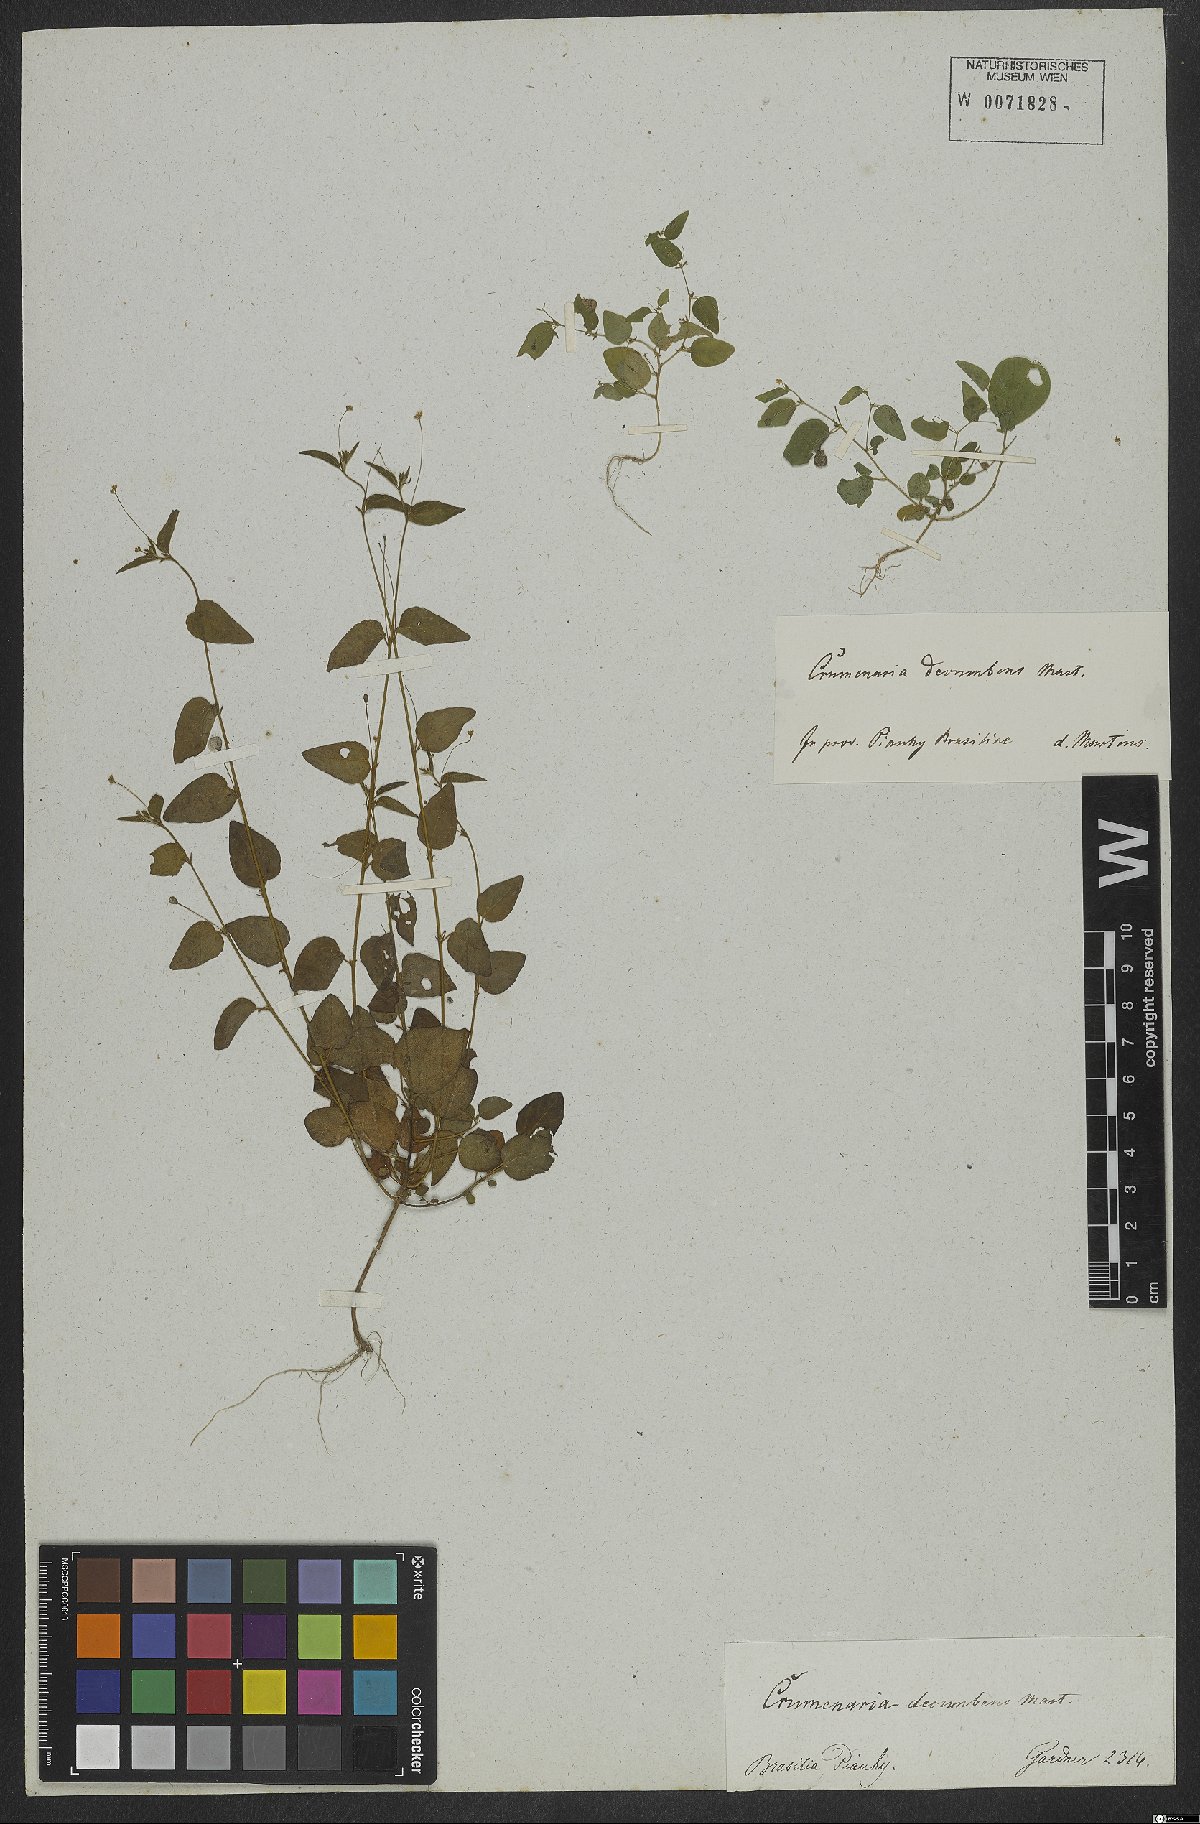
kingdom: Plantae
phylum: Tracheophyta
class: Magnoliopsida
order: Rosales
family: Rhamnaceae
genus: Crumenaria
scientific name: Crumenaria decumbens
